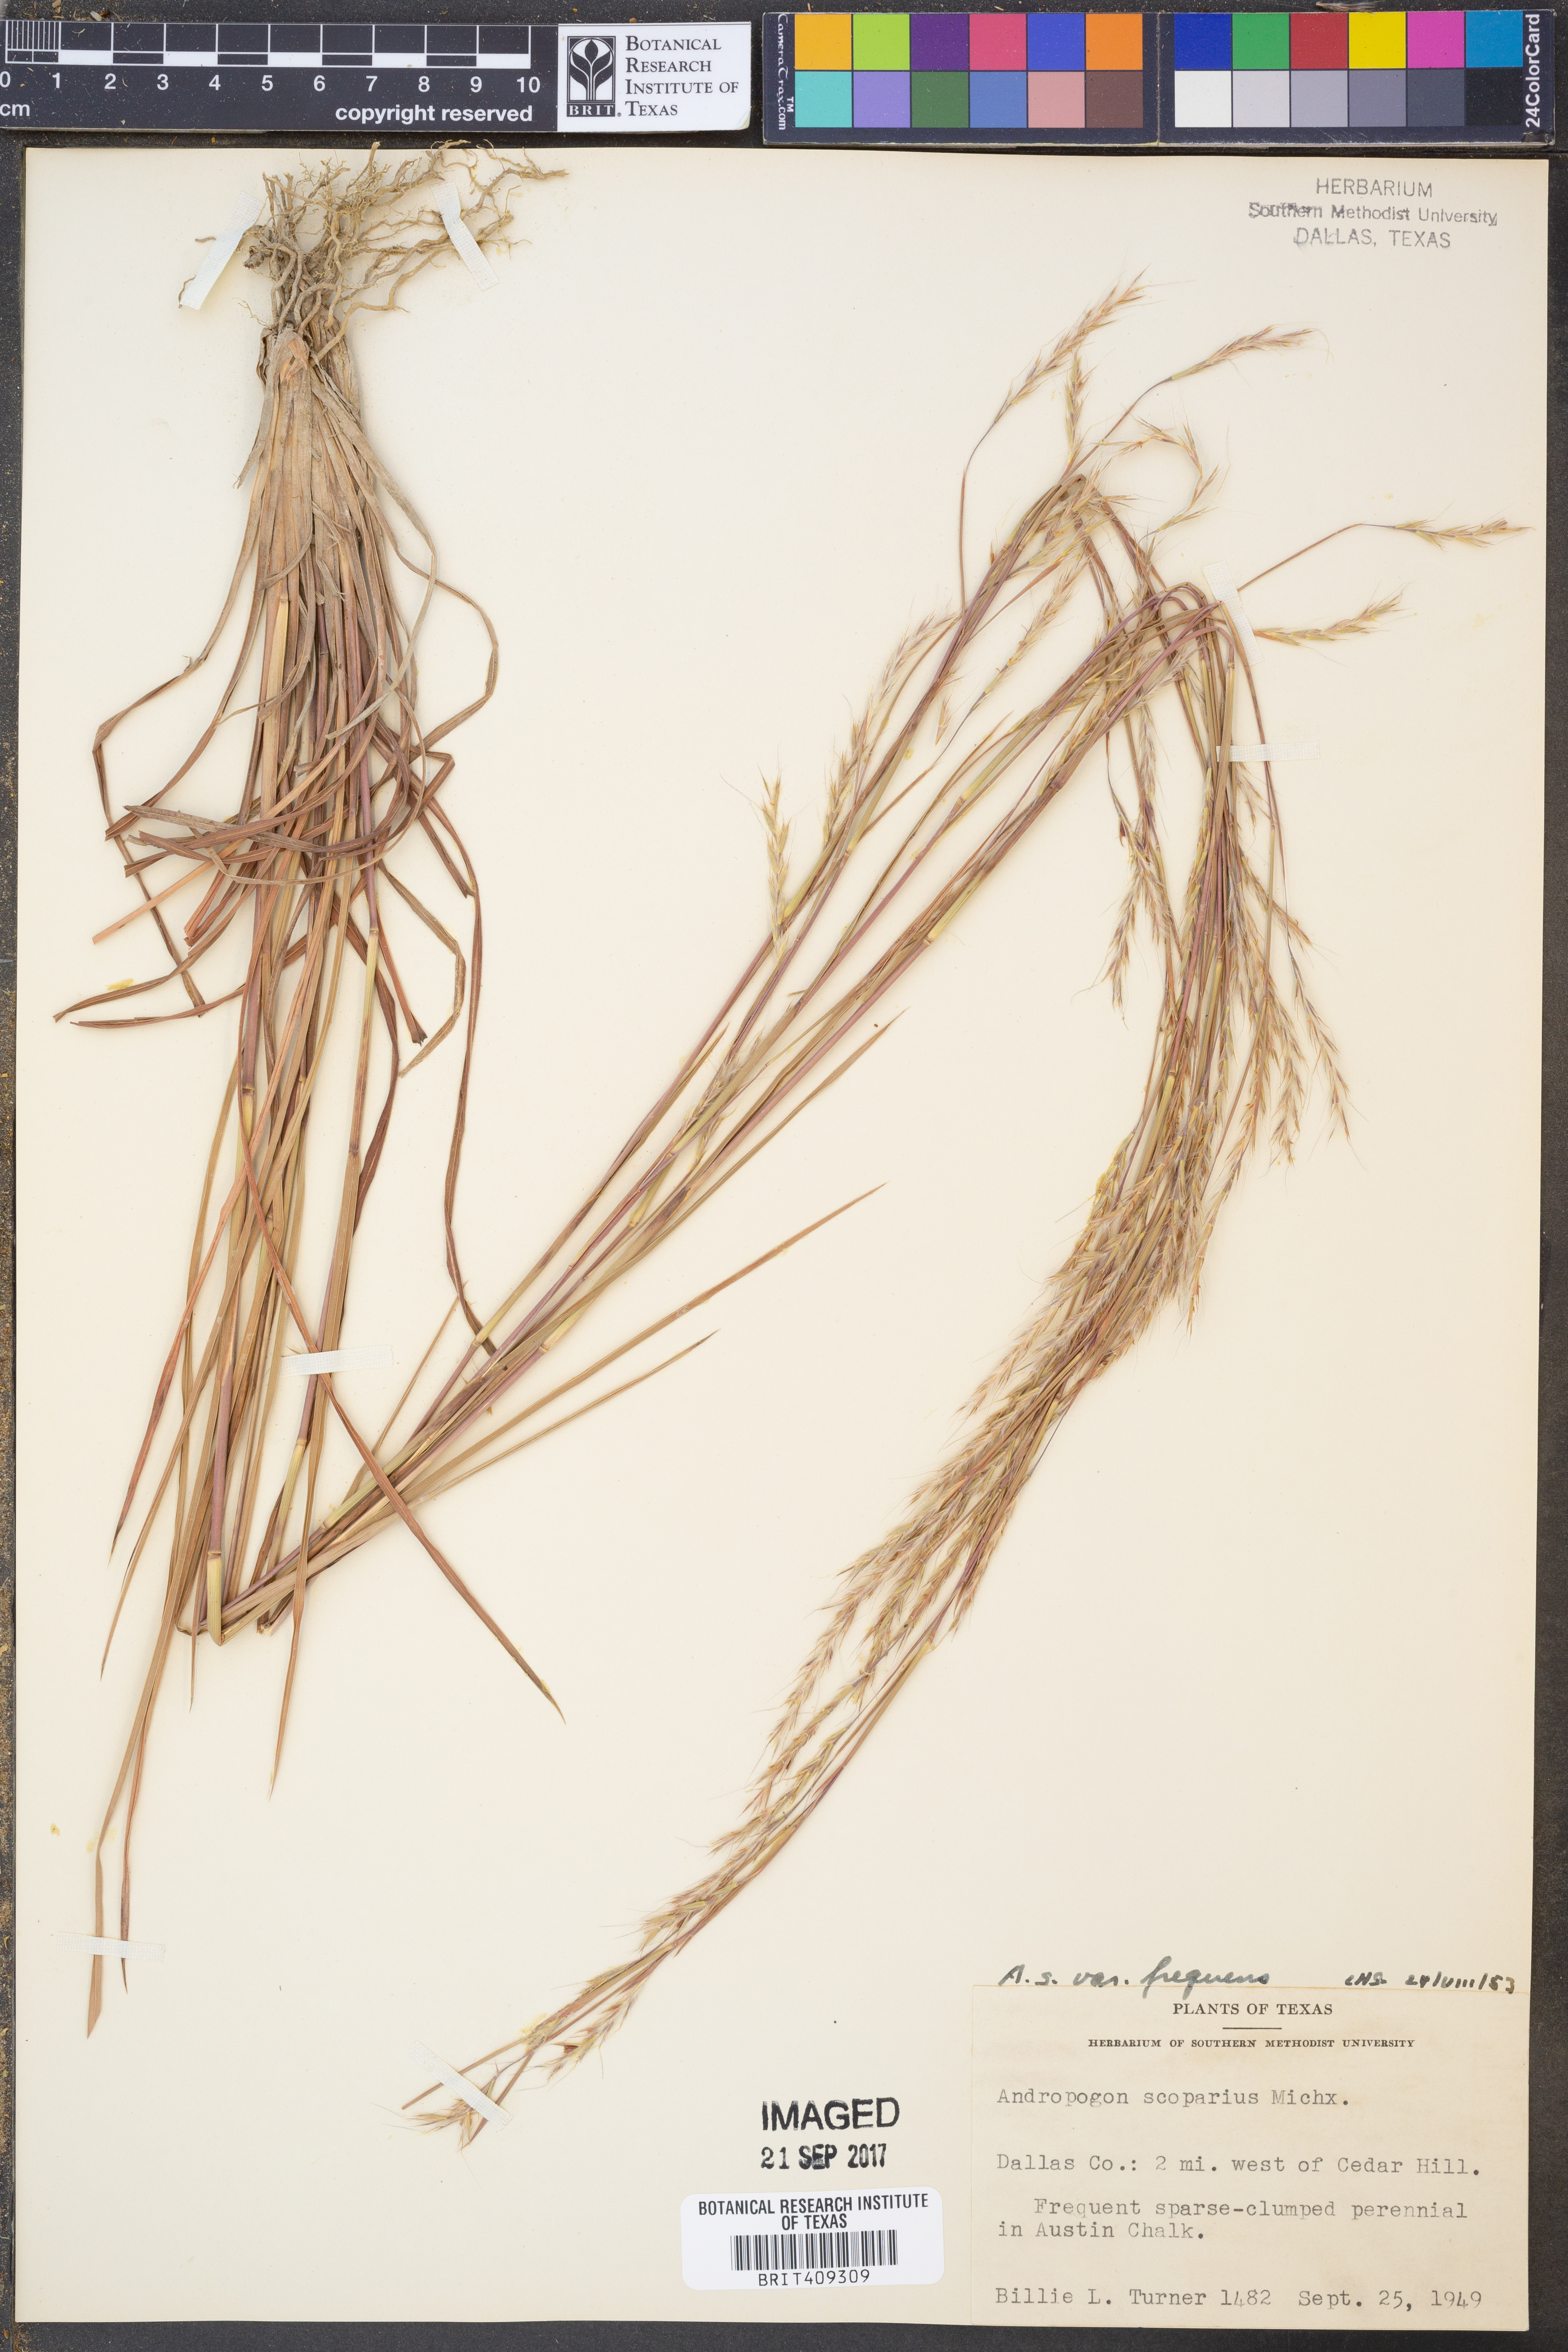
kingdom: Plantae
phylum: Tracheophyta
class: Liliopsida
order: Poales
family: Poaceae
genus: Schizachyrium
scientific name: Schizachyrium scoparium
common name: Little bluestem
